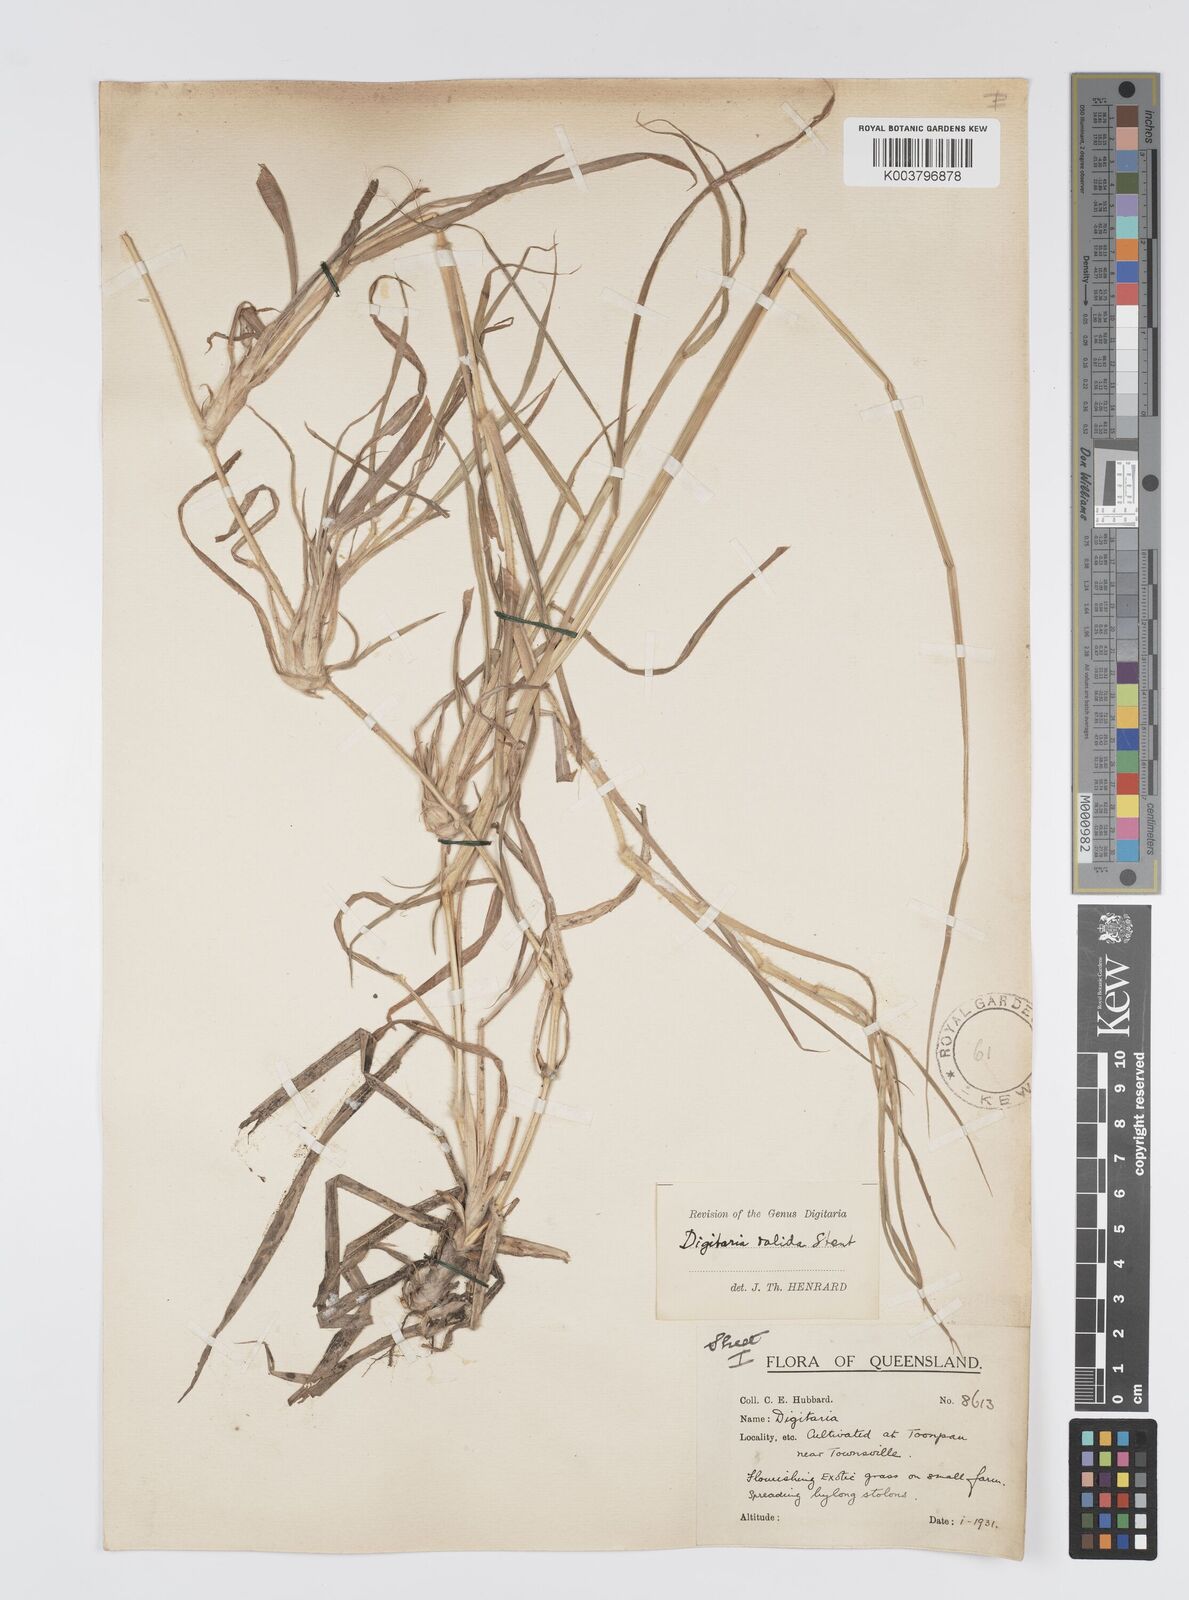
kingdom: Plantae
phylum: Tracheophyta
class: Liliopsida
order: Poales
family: Poaceae
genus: Digitaria
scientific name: Digitaria eriantha
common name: Digitgrass
